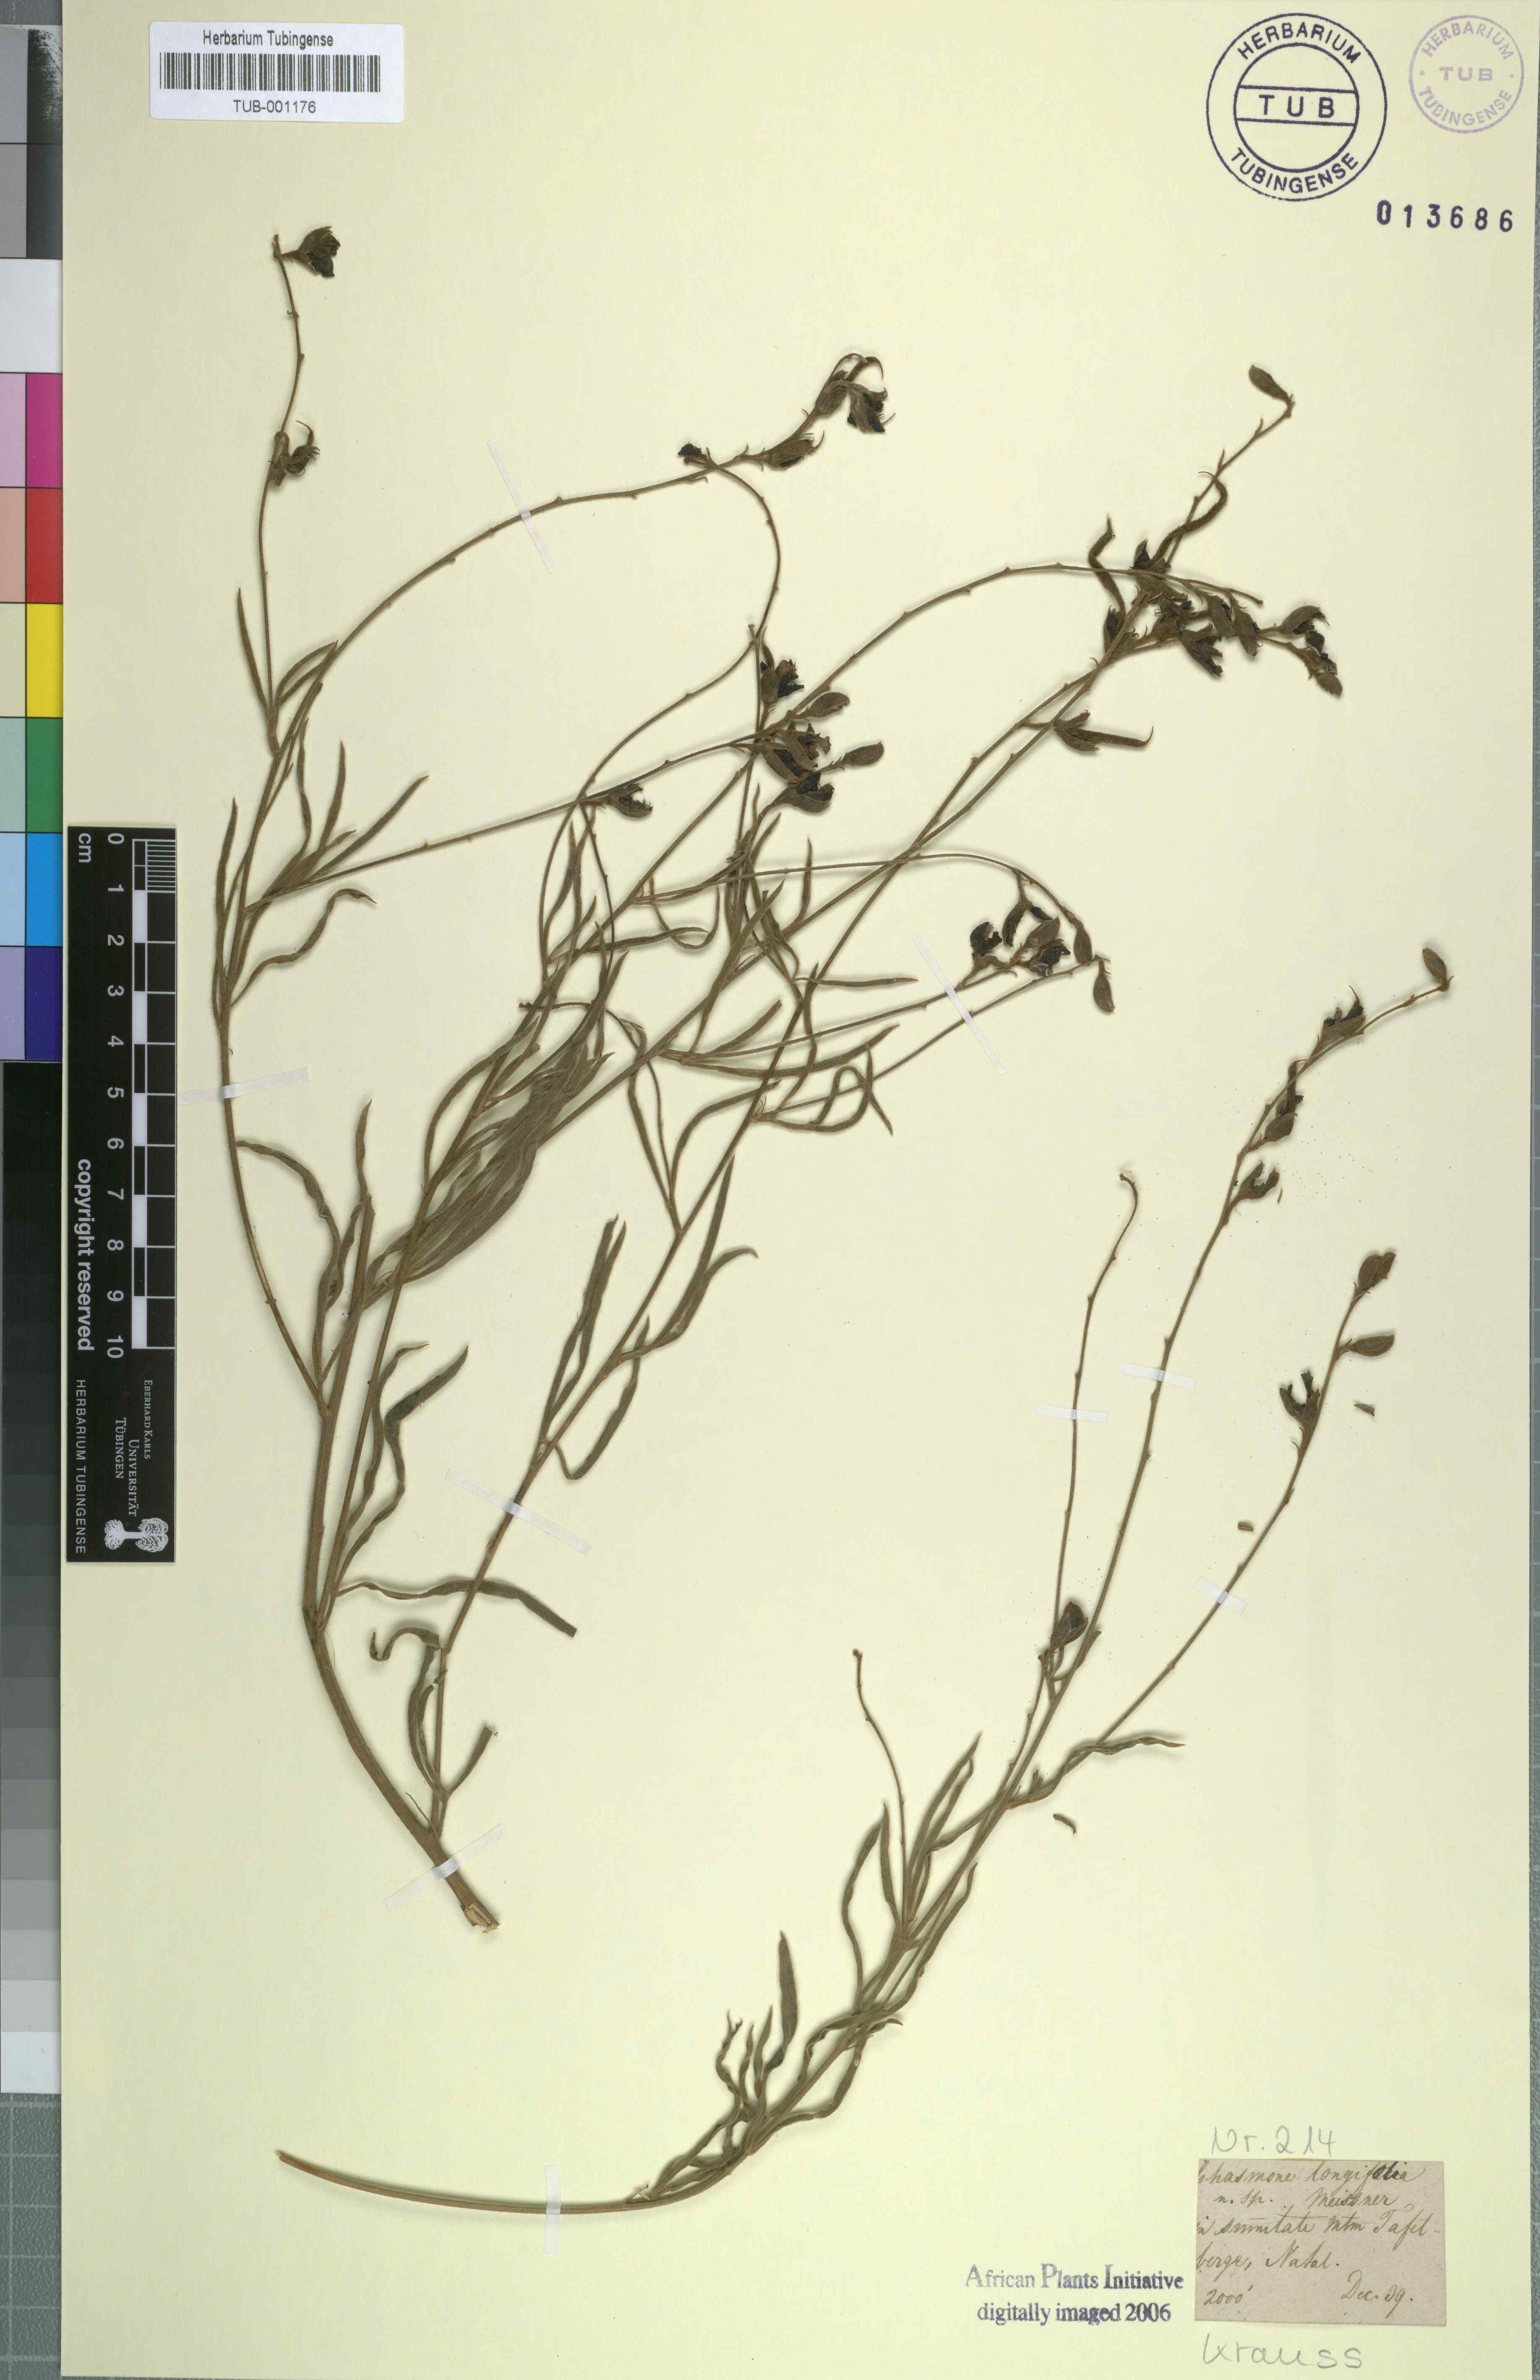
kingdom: Plantae
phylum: Tracheophyta
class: Magnoliopsida
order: Fabales
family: Fabaceae
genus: Argyrolobium
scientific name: Argyrolobium longifolium
